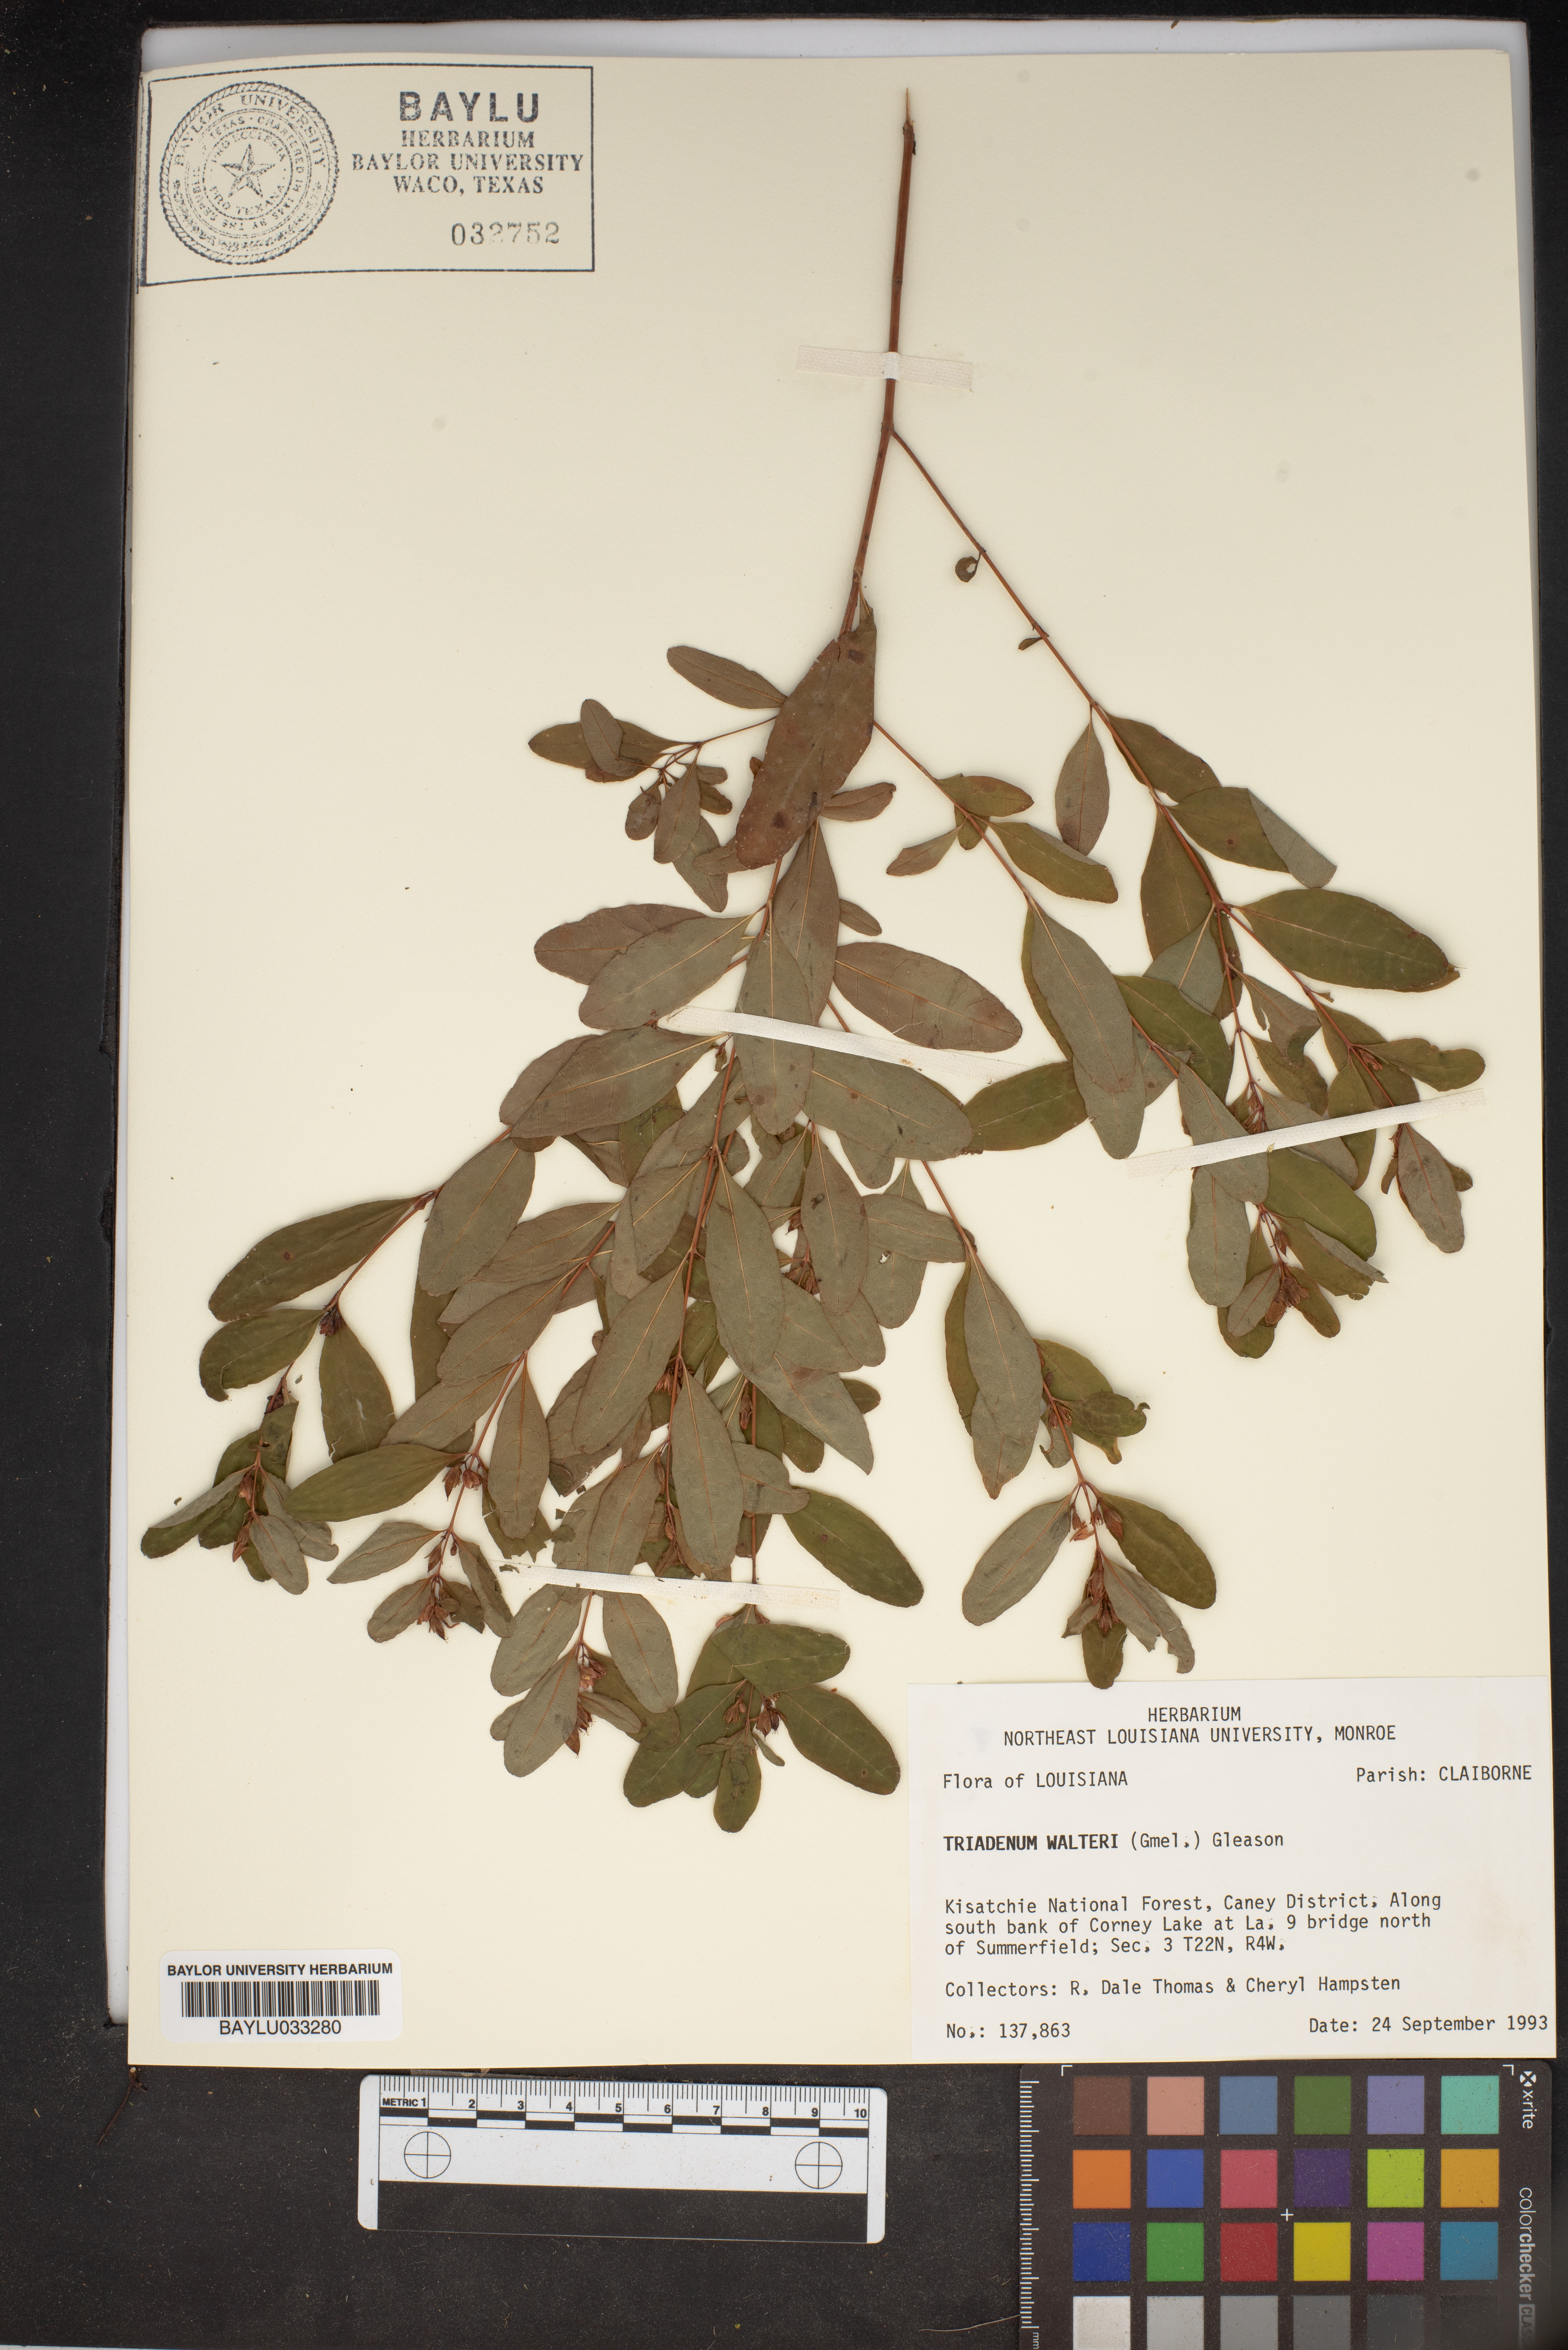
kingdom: Plantae
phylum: Tracheophyta
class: Magnoliopsida
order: Malpighiales
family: Hypericaceae
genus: Triadenum
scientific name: Triadenum walteri
